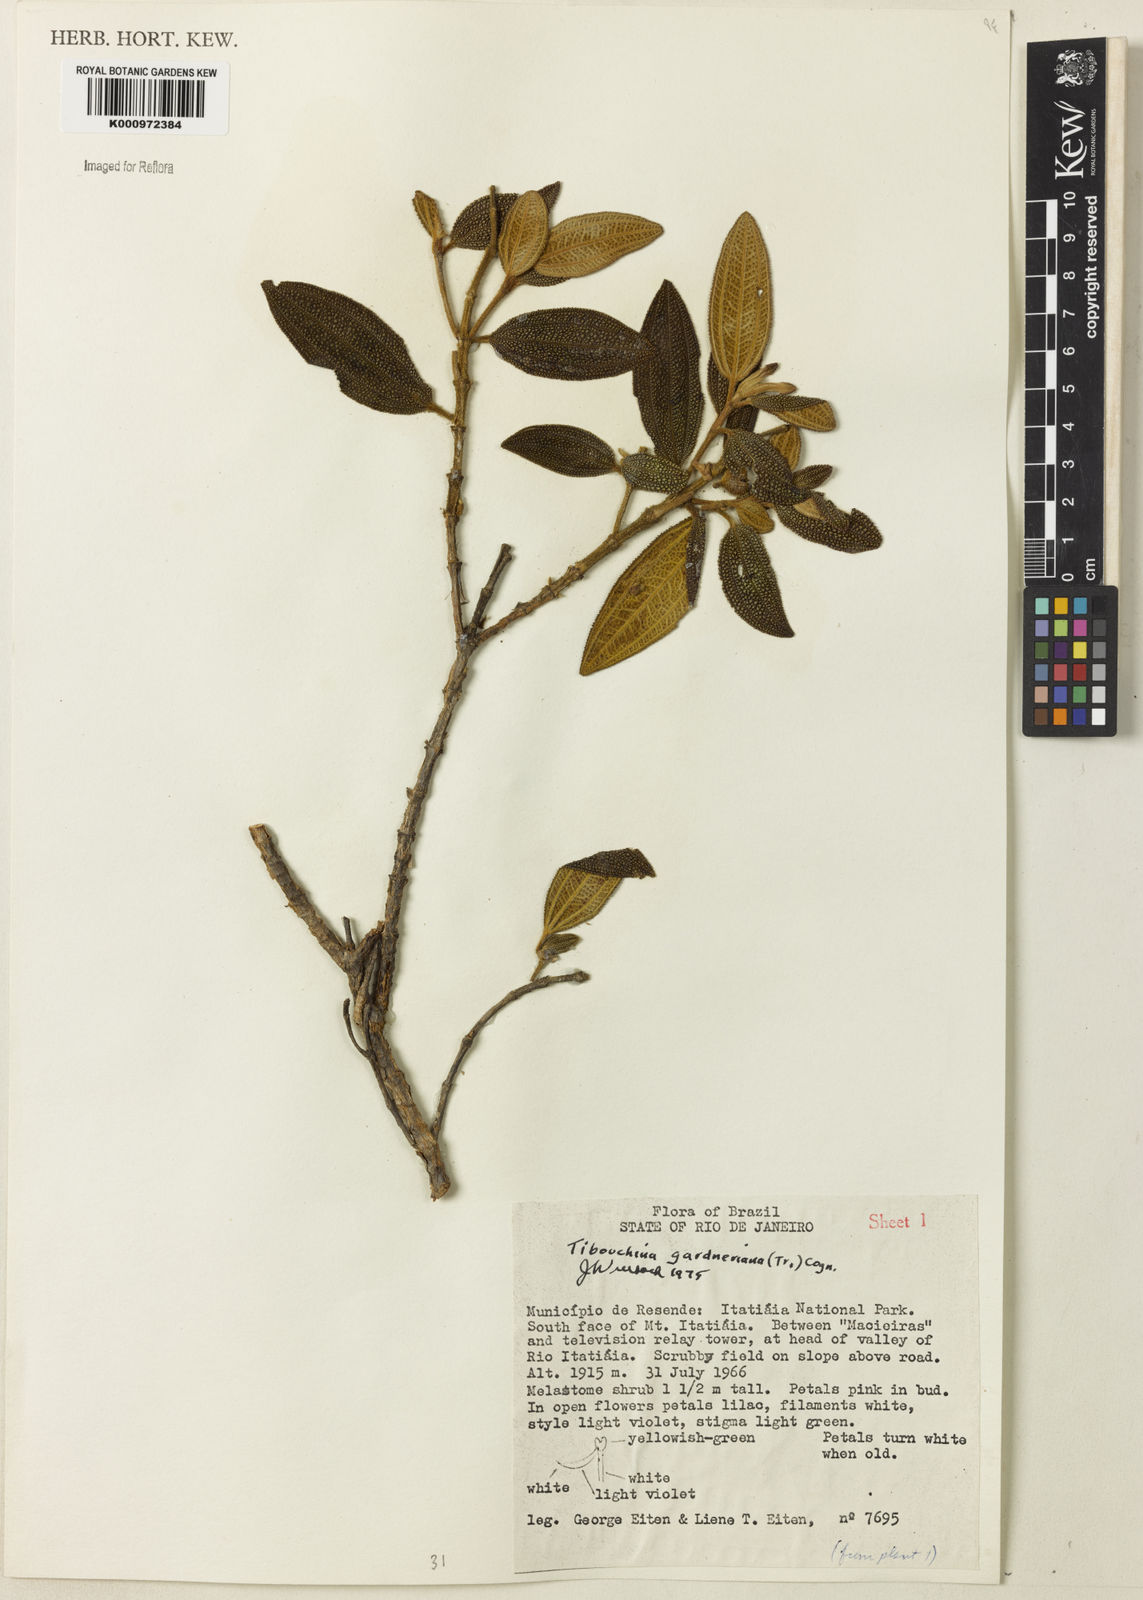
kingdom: Plantae
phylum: Tracheophyta
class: Magnoliopsida
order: Myrtales
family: Melastomataceae
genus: Pleroma
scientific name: Pleroma echinatum
